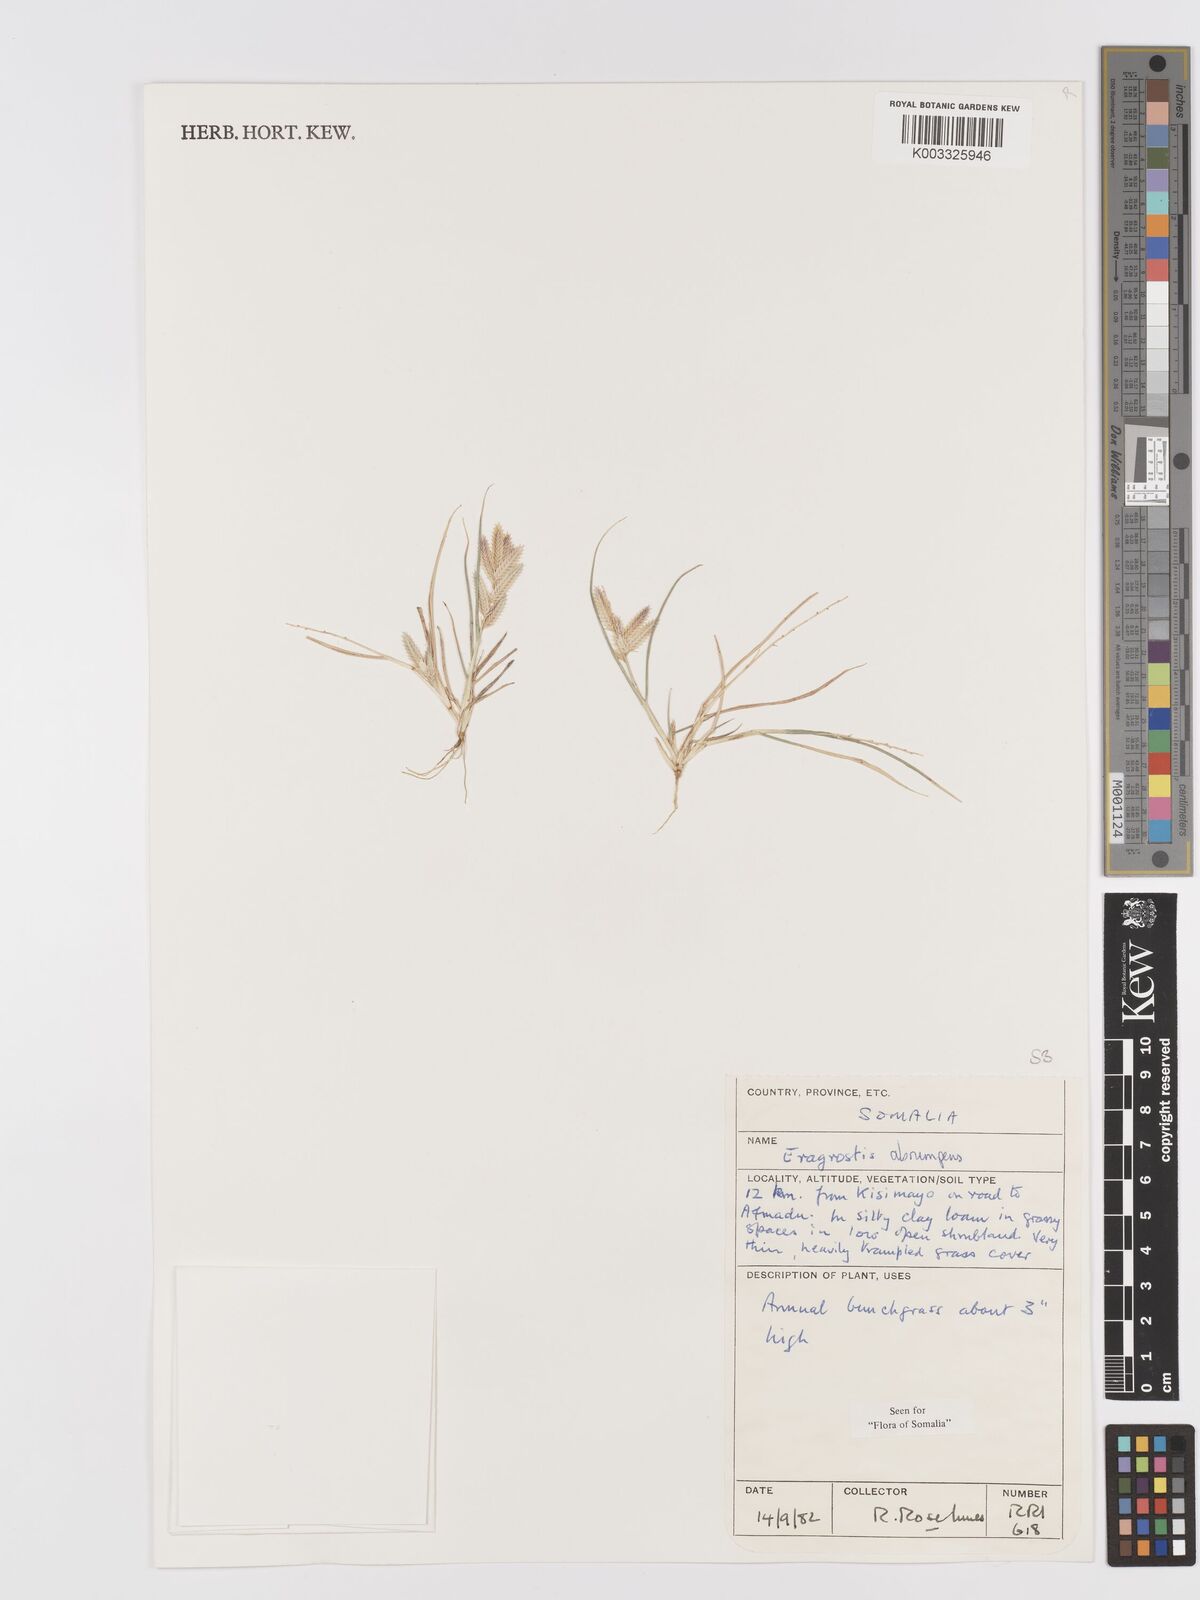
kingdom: Plantae
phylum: Tracheophyta
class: Liliopsida
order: Poales
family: Poaceae
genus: Eragrostis
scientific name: Eragrostis sennii
